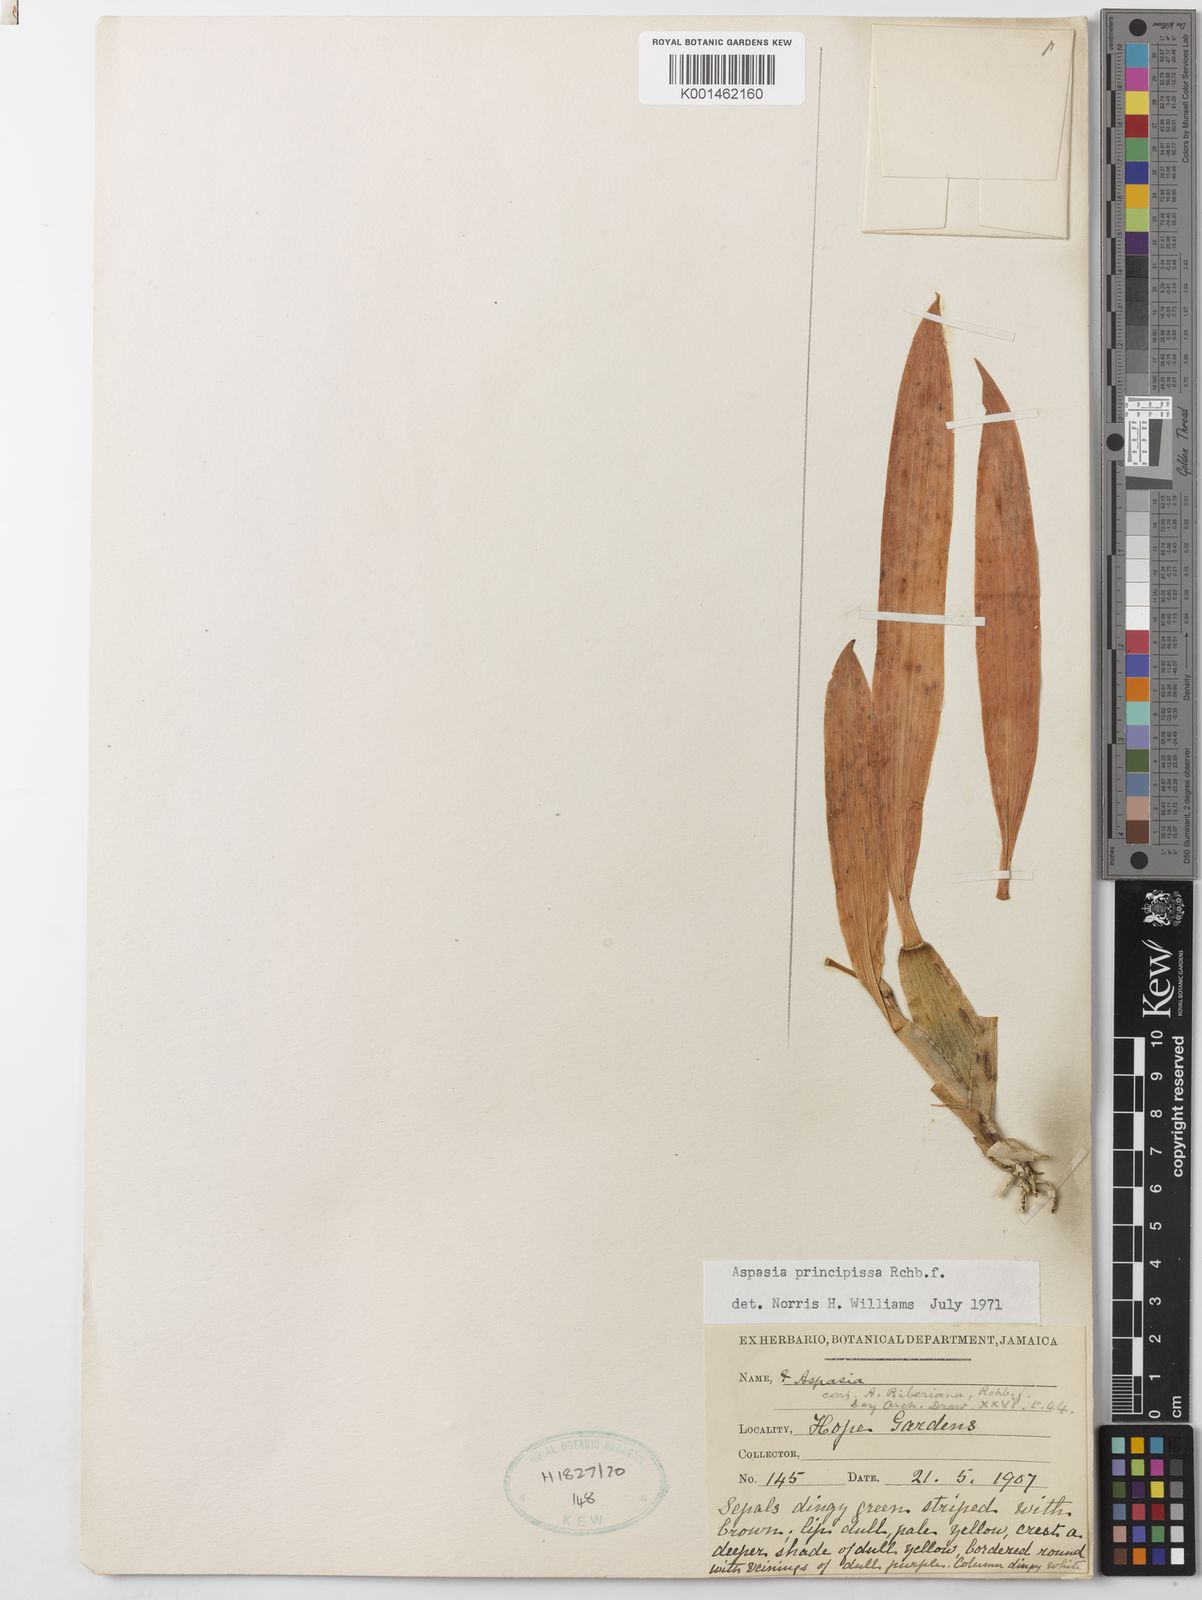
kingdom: Plantae
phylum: Tracheophyta
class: Liliopsida
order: Asparagales
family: Orchidaceae
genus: Aspasia
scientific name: Aspasia epidendroides
